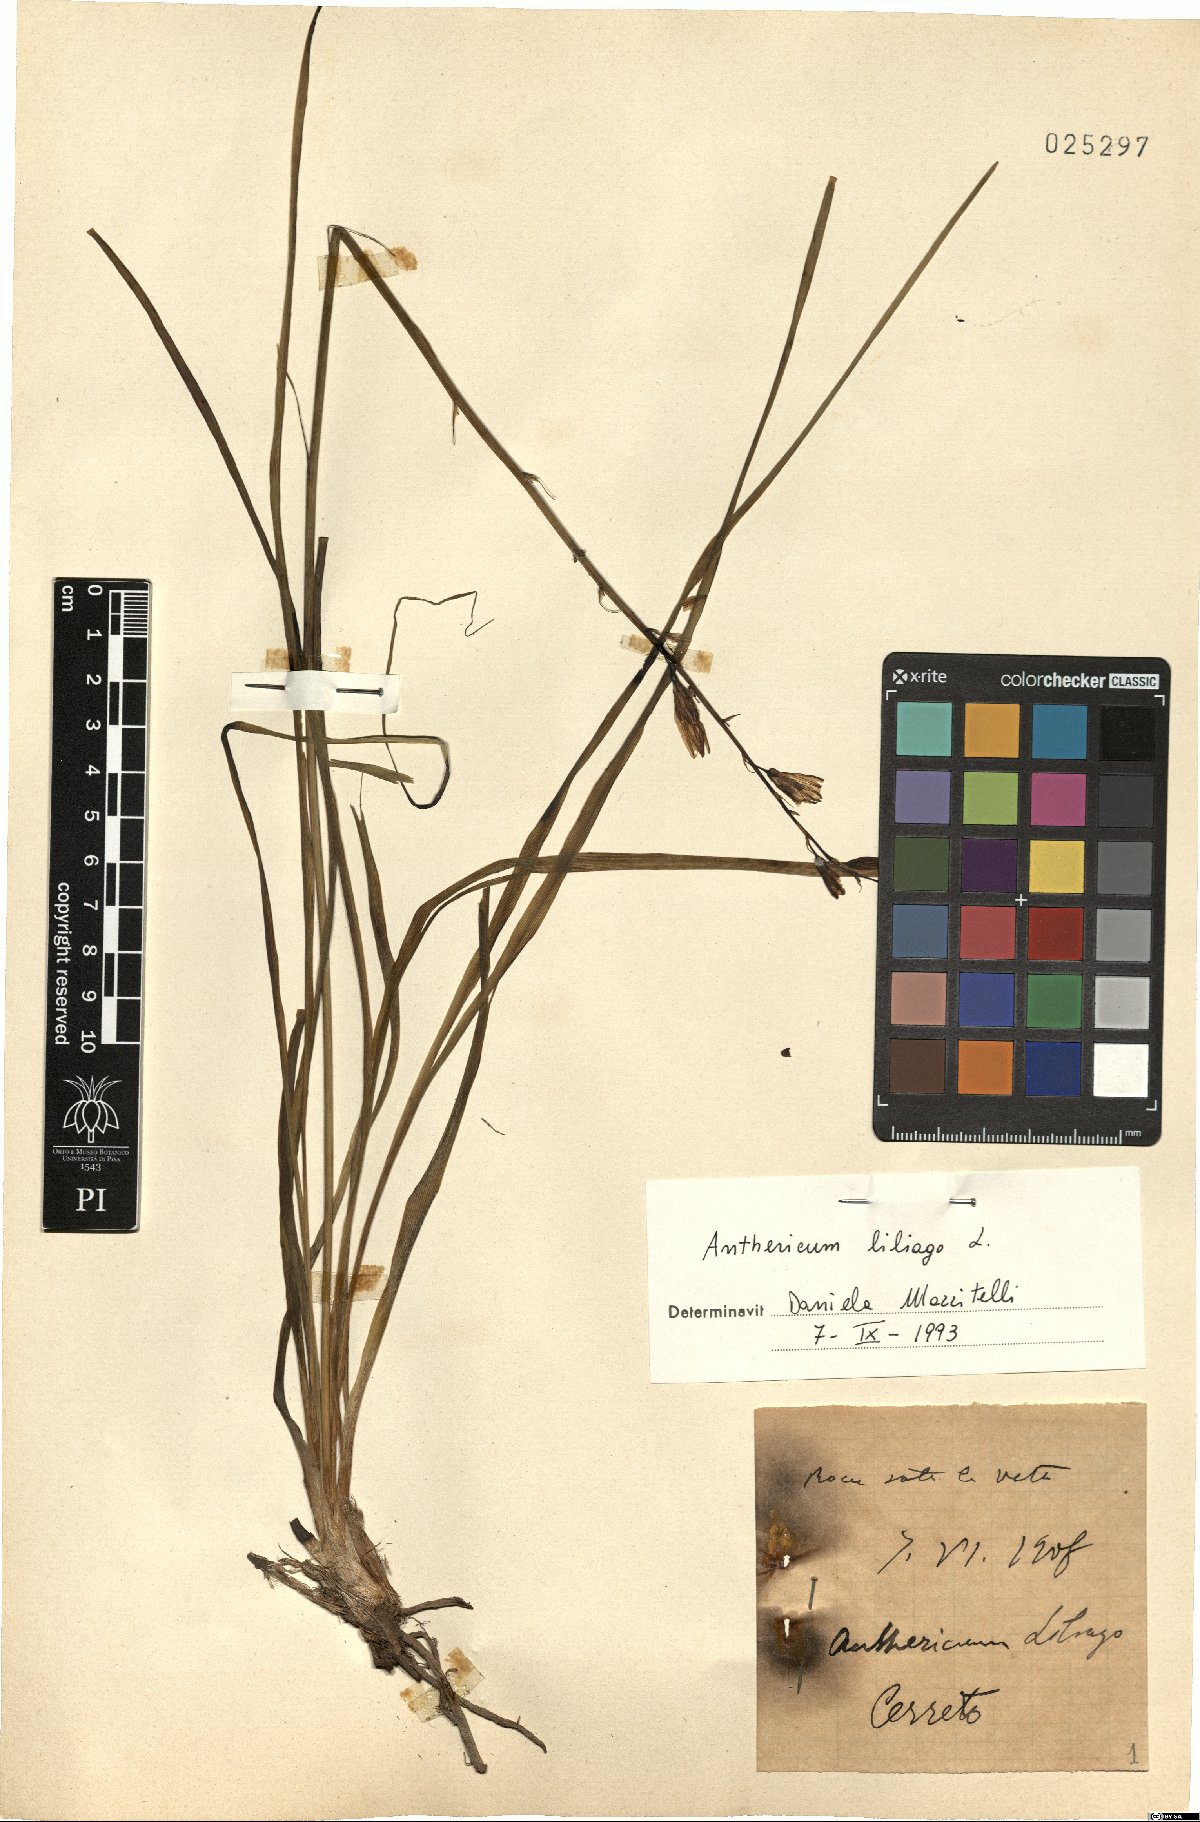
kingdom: Plantae
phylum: Tracheophyta
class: Liliopsida
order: Asparagales
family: Asparagaceae
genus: Anthericum
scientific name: Anthericum liliago
